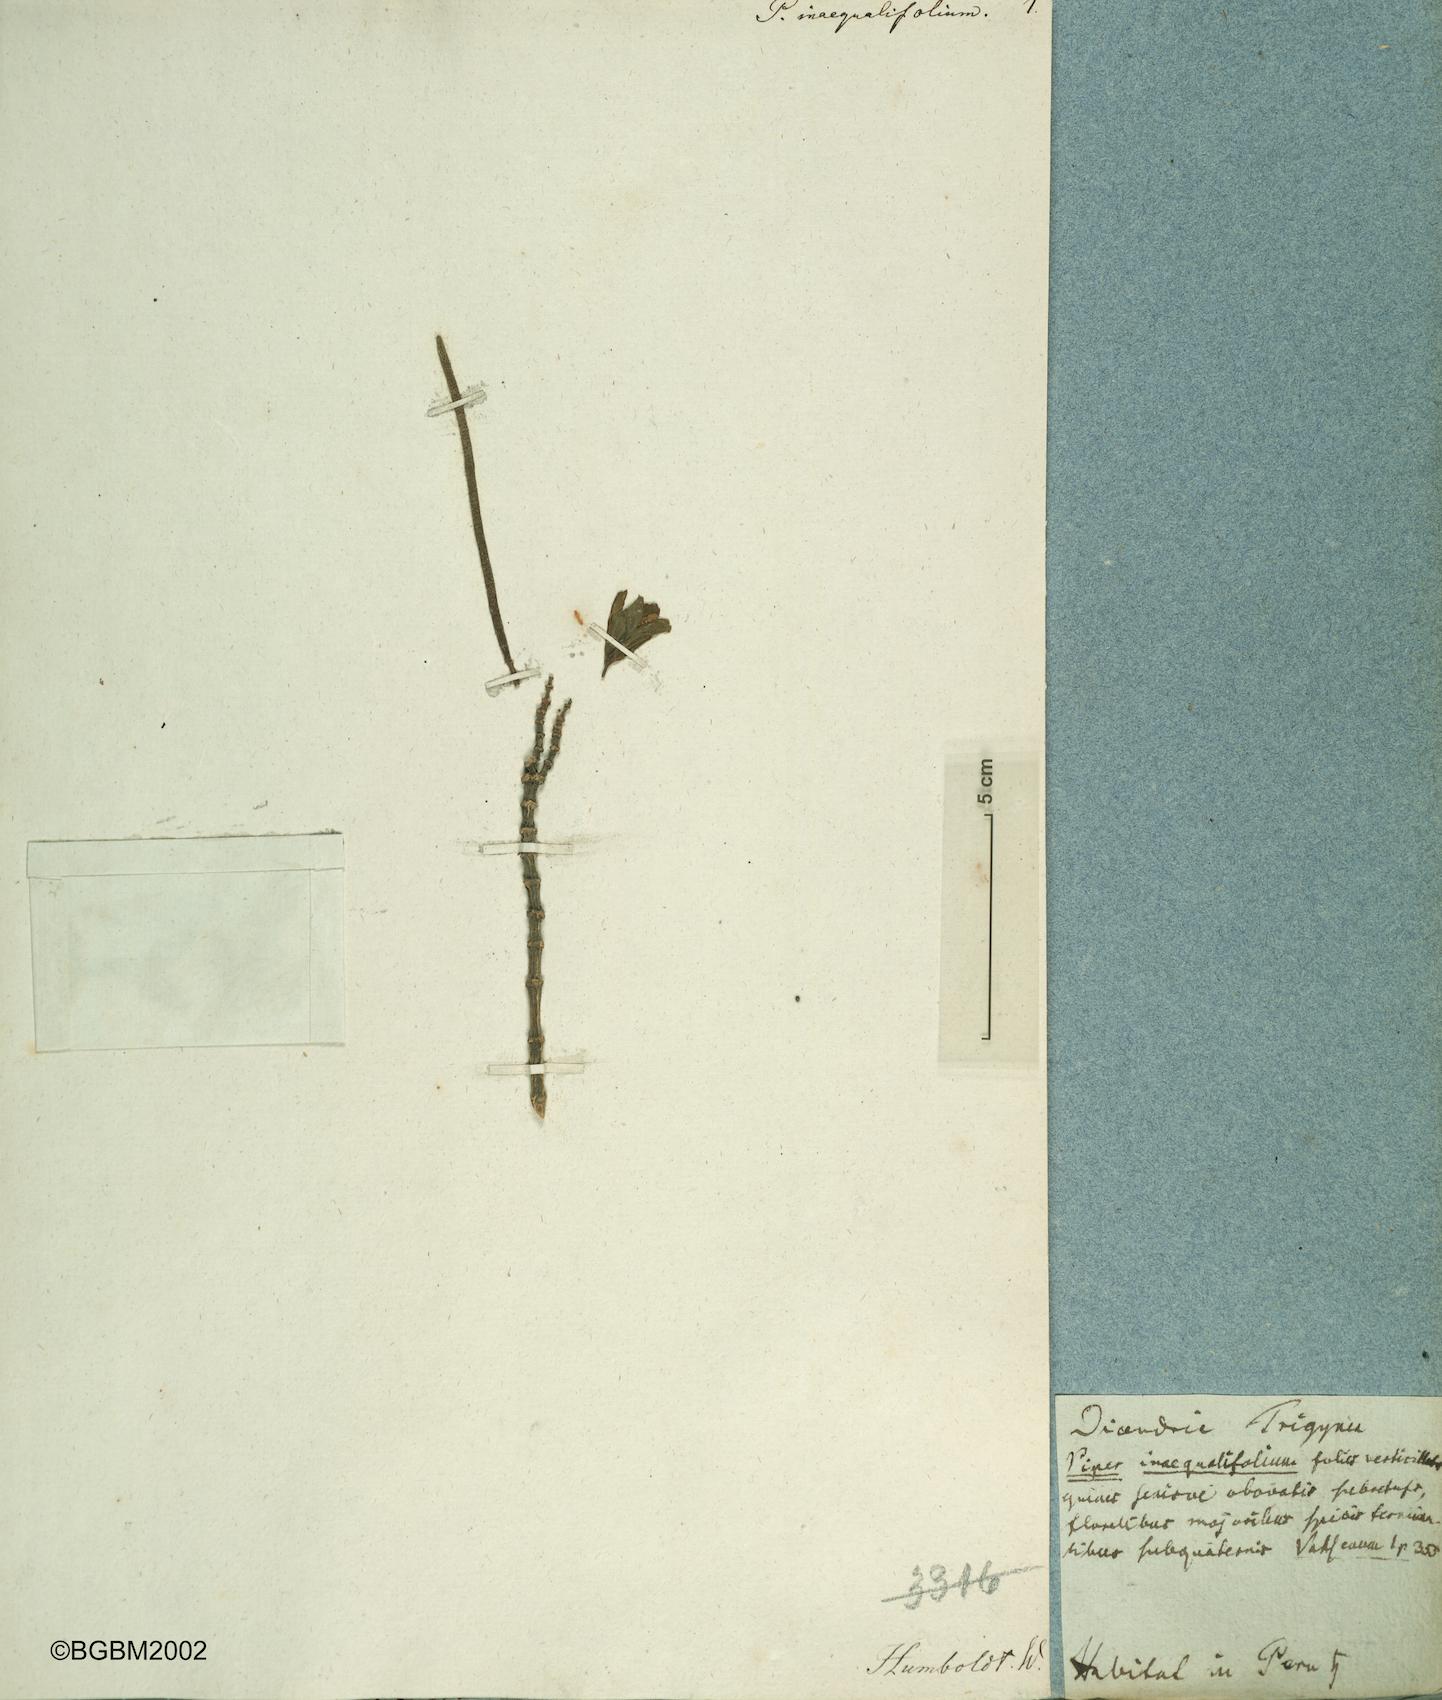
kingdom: Plantae
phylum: Tracheophyta
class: Magnoliopsida
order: Piperales
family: Piperaceae
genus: Peperomia
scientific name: Peperomia inaequalifolia
